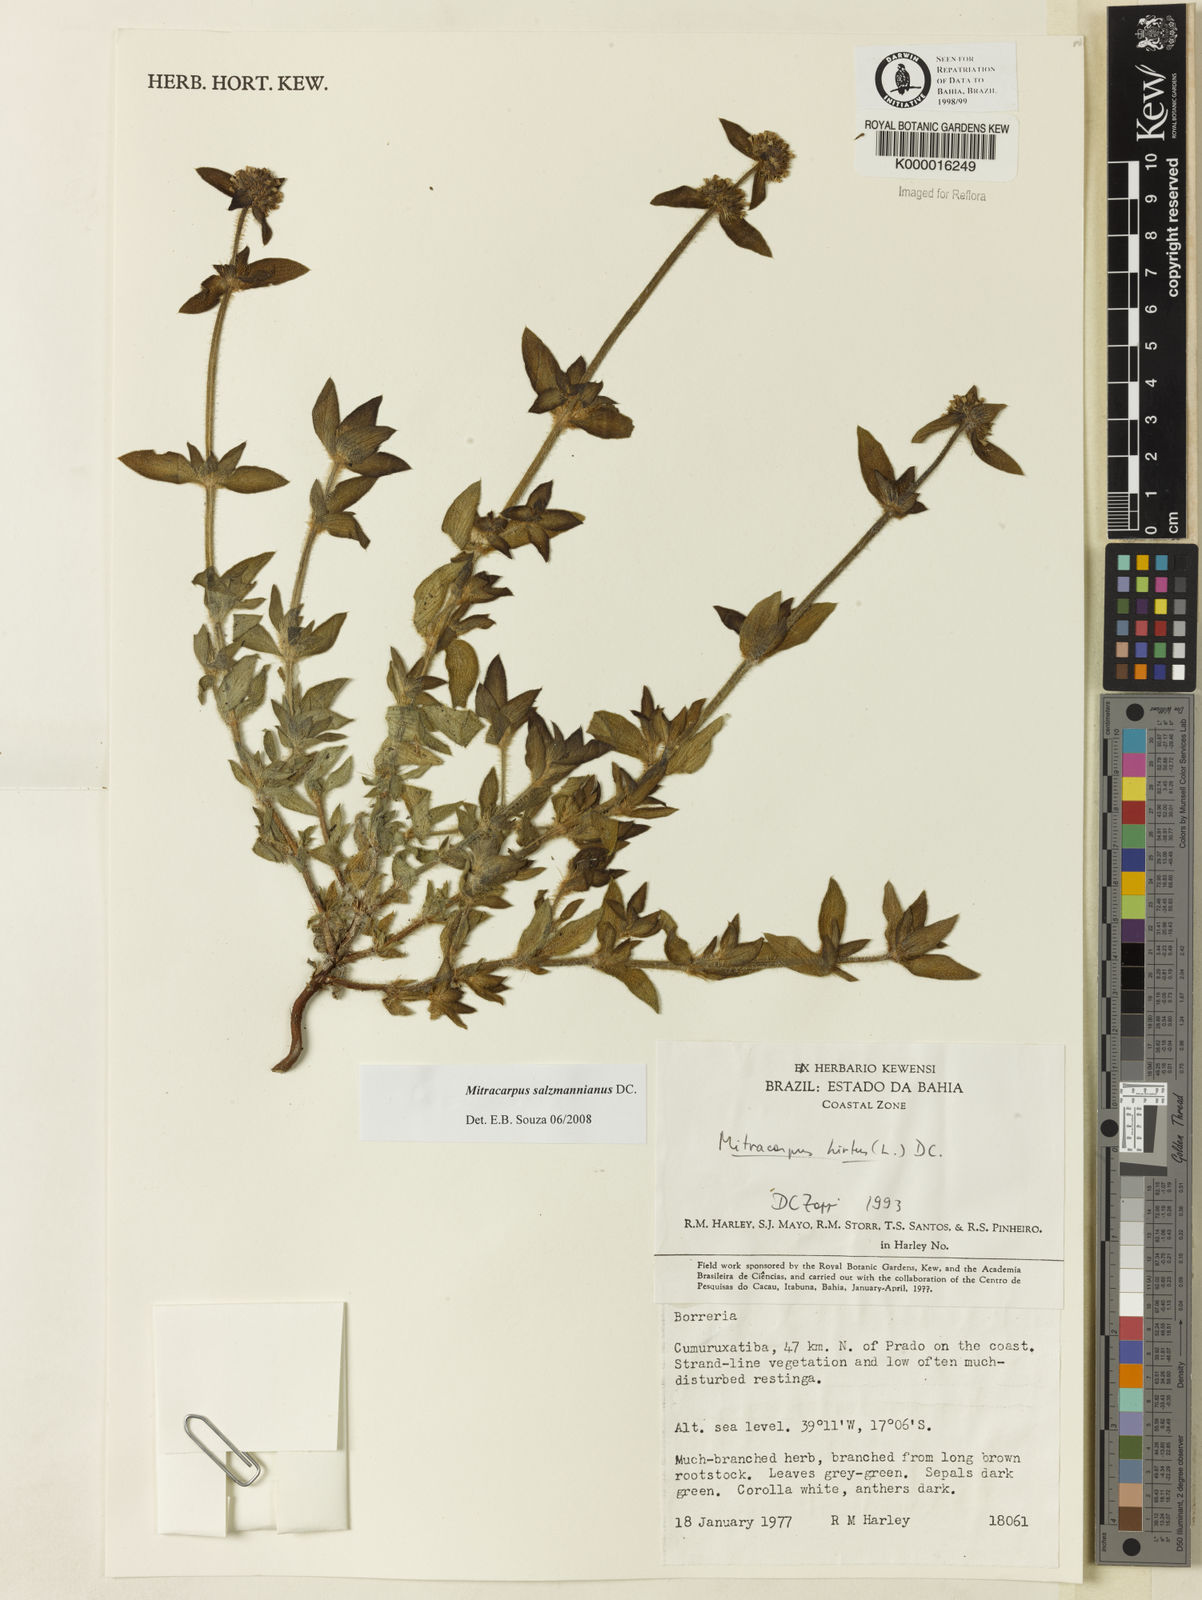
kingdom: Plantae
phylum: Tracheophyta
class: Magnoliopsida
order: Gentianales
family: Rubiaceae
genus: Mitracarpus
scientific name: Mitracarpus salzmannianus
